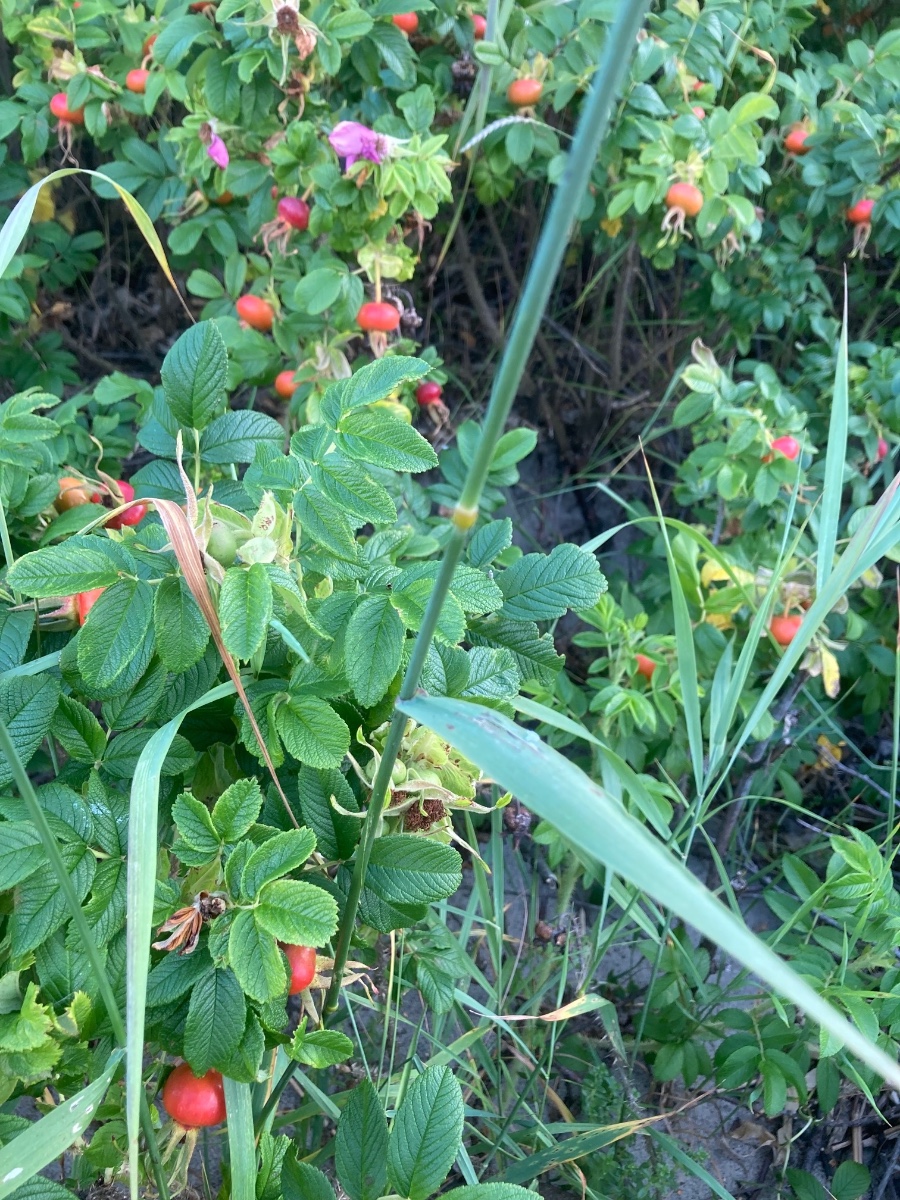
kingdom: Fungi
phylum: Ascomycota
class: Sordariomycetes
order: Phyllachorales
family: Phyllachoraceae
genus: Phyllachora
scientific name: Phyllachora graminis
